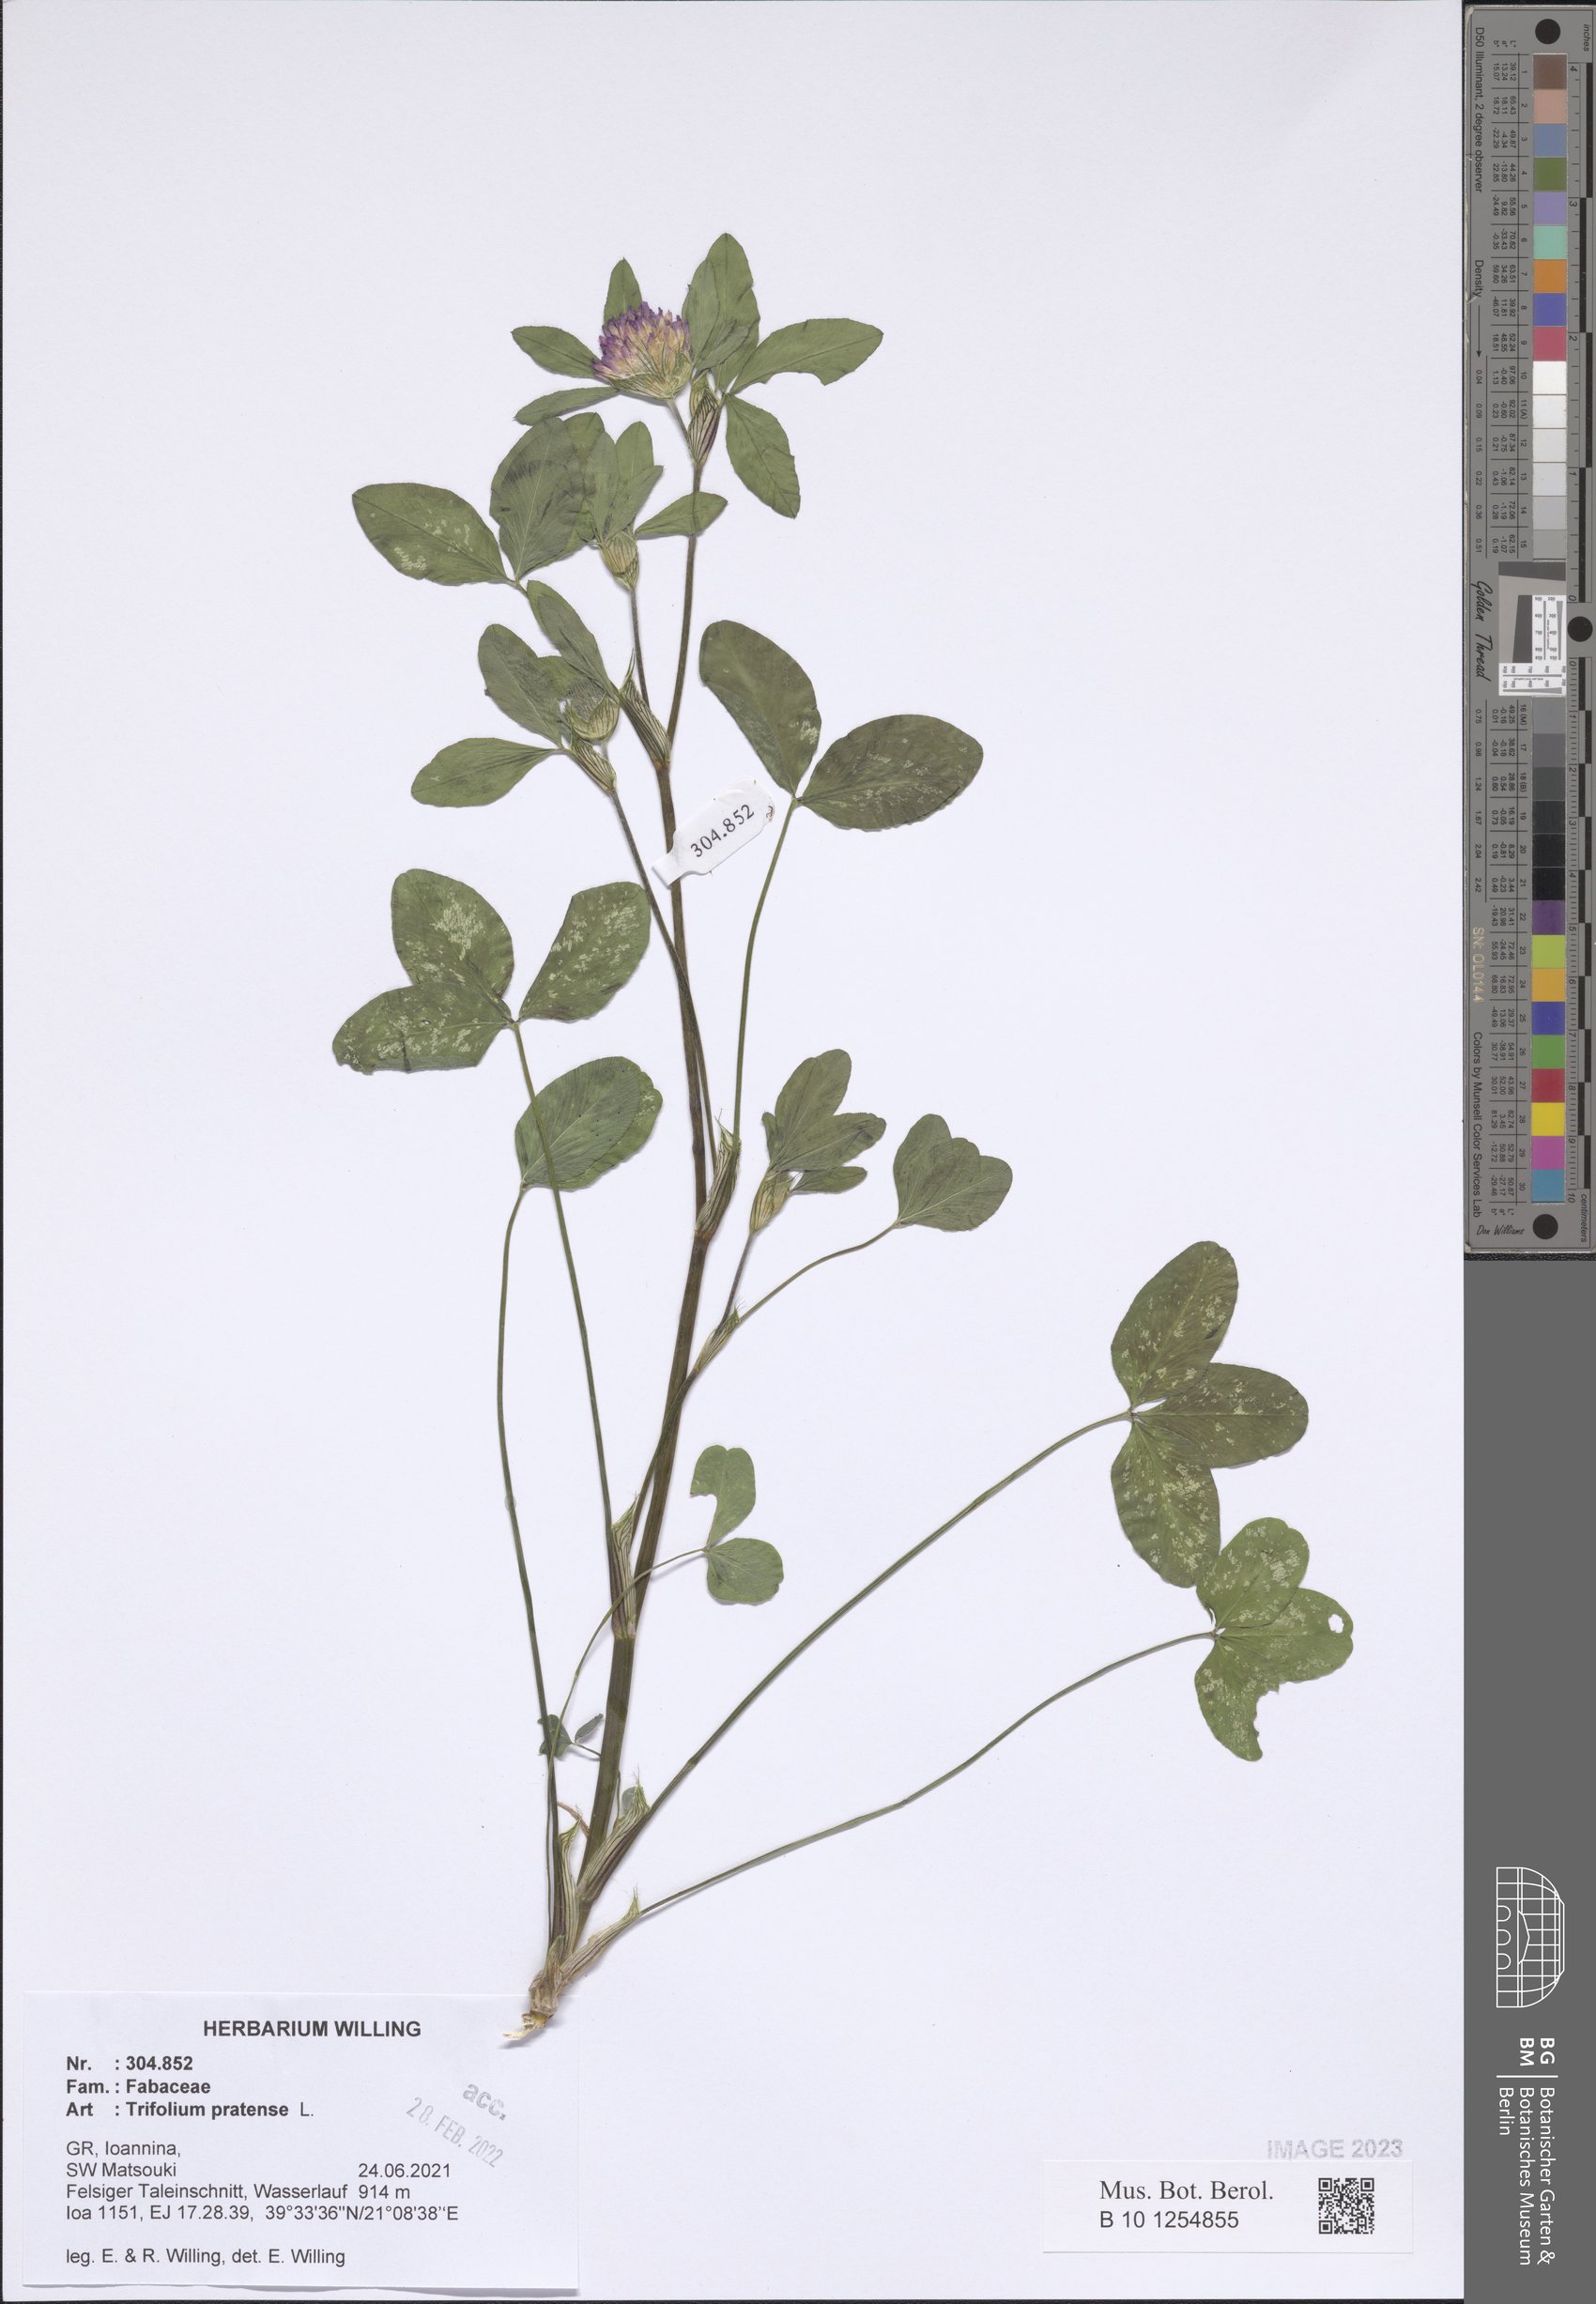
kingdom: Plantae
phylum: Tracheophyta
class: Magnoliopsida
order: Fabales
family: Fabaceae
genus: Trifolium
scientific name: Trifolium pratense
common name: Red clover
